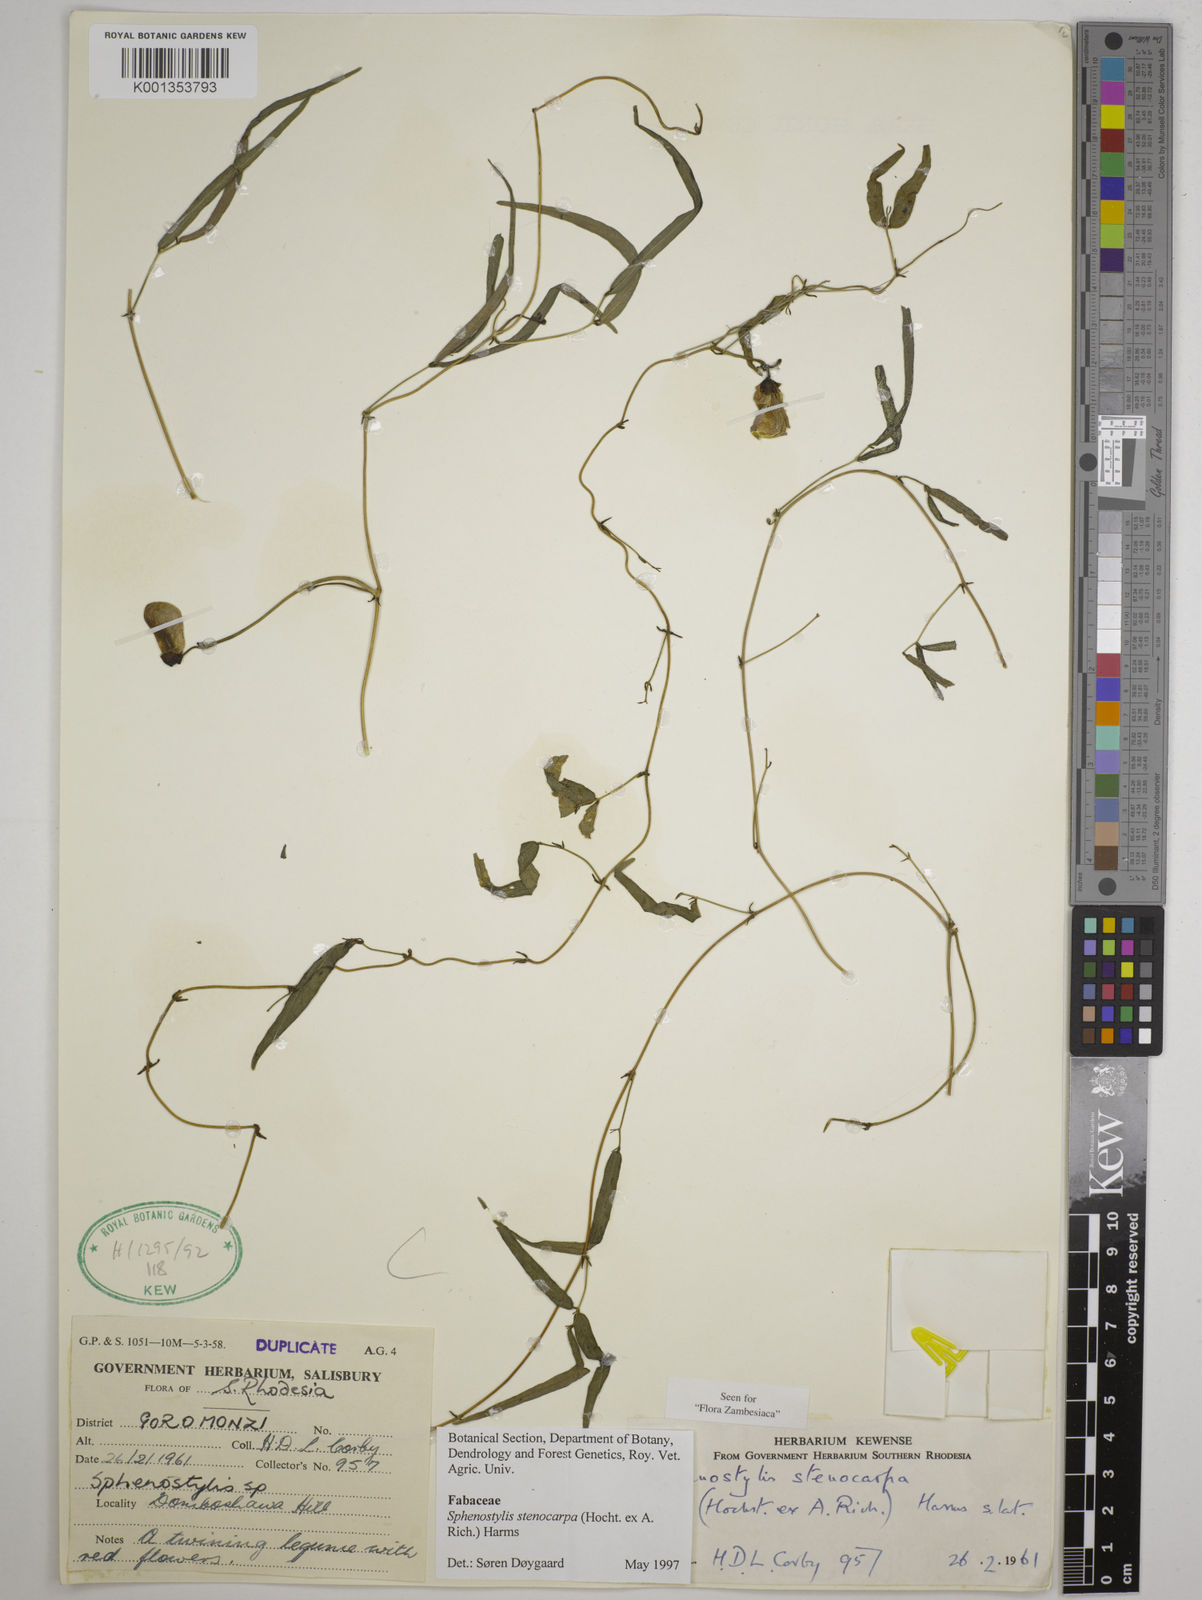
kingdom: Plantae
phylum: Tracheophyta
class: Magnoliopsida
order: Fabales
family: Fabaceae
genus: Sphenostylis
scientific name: Sphenostylis stenocarpa
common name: Yam-pea
